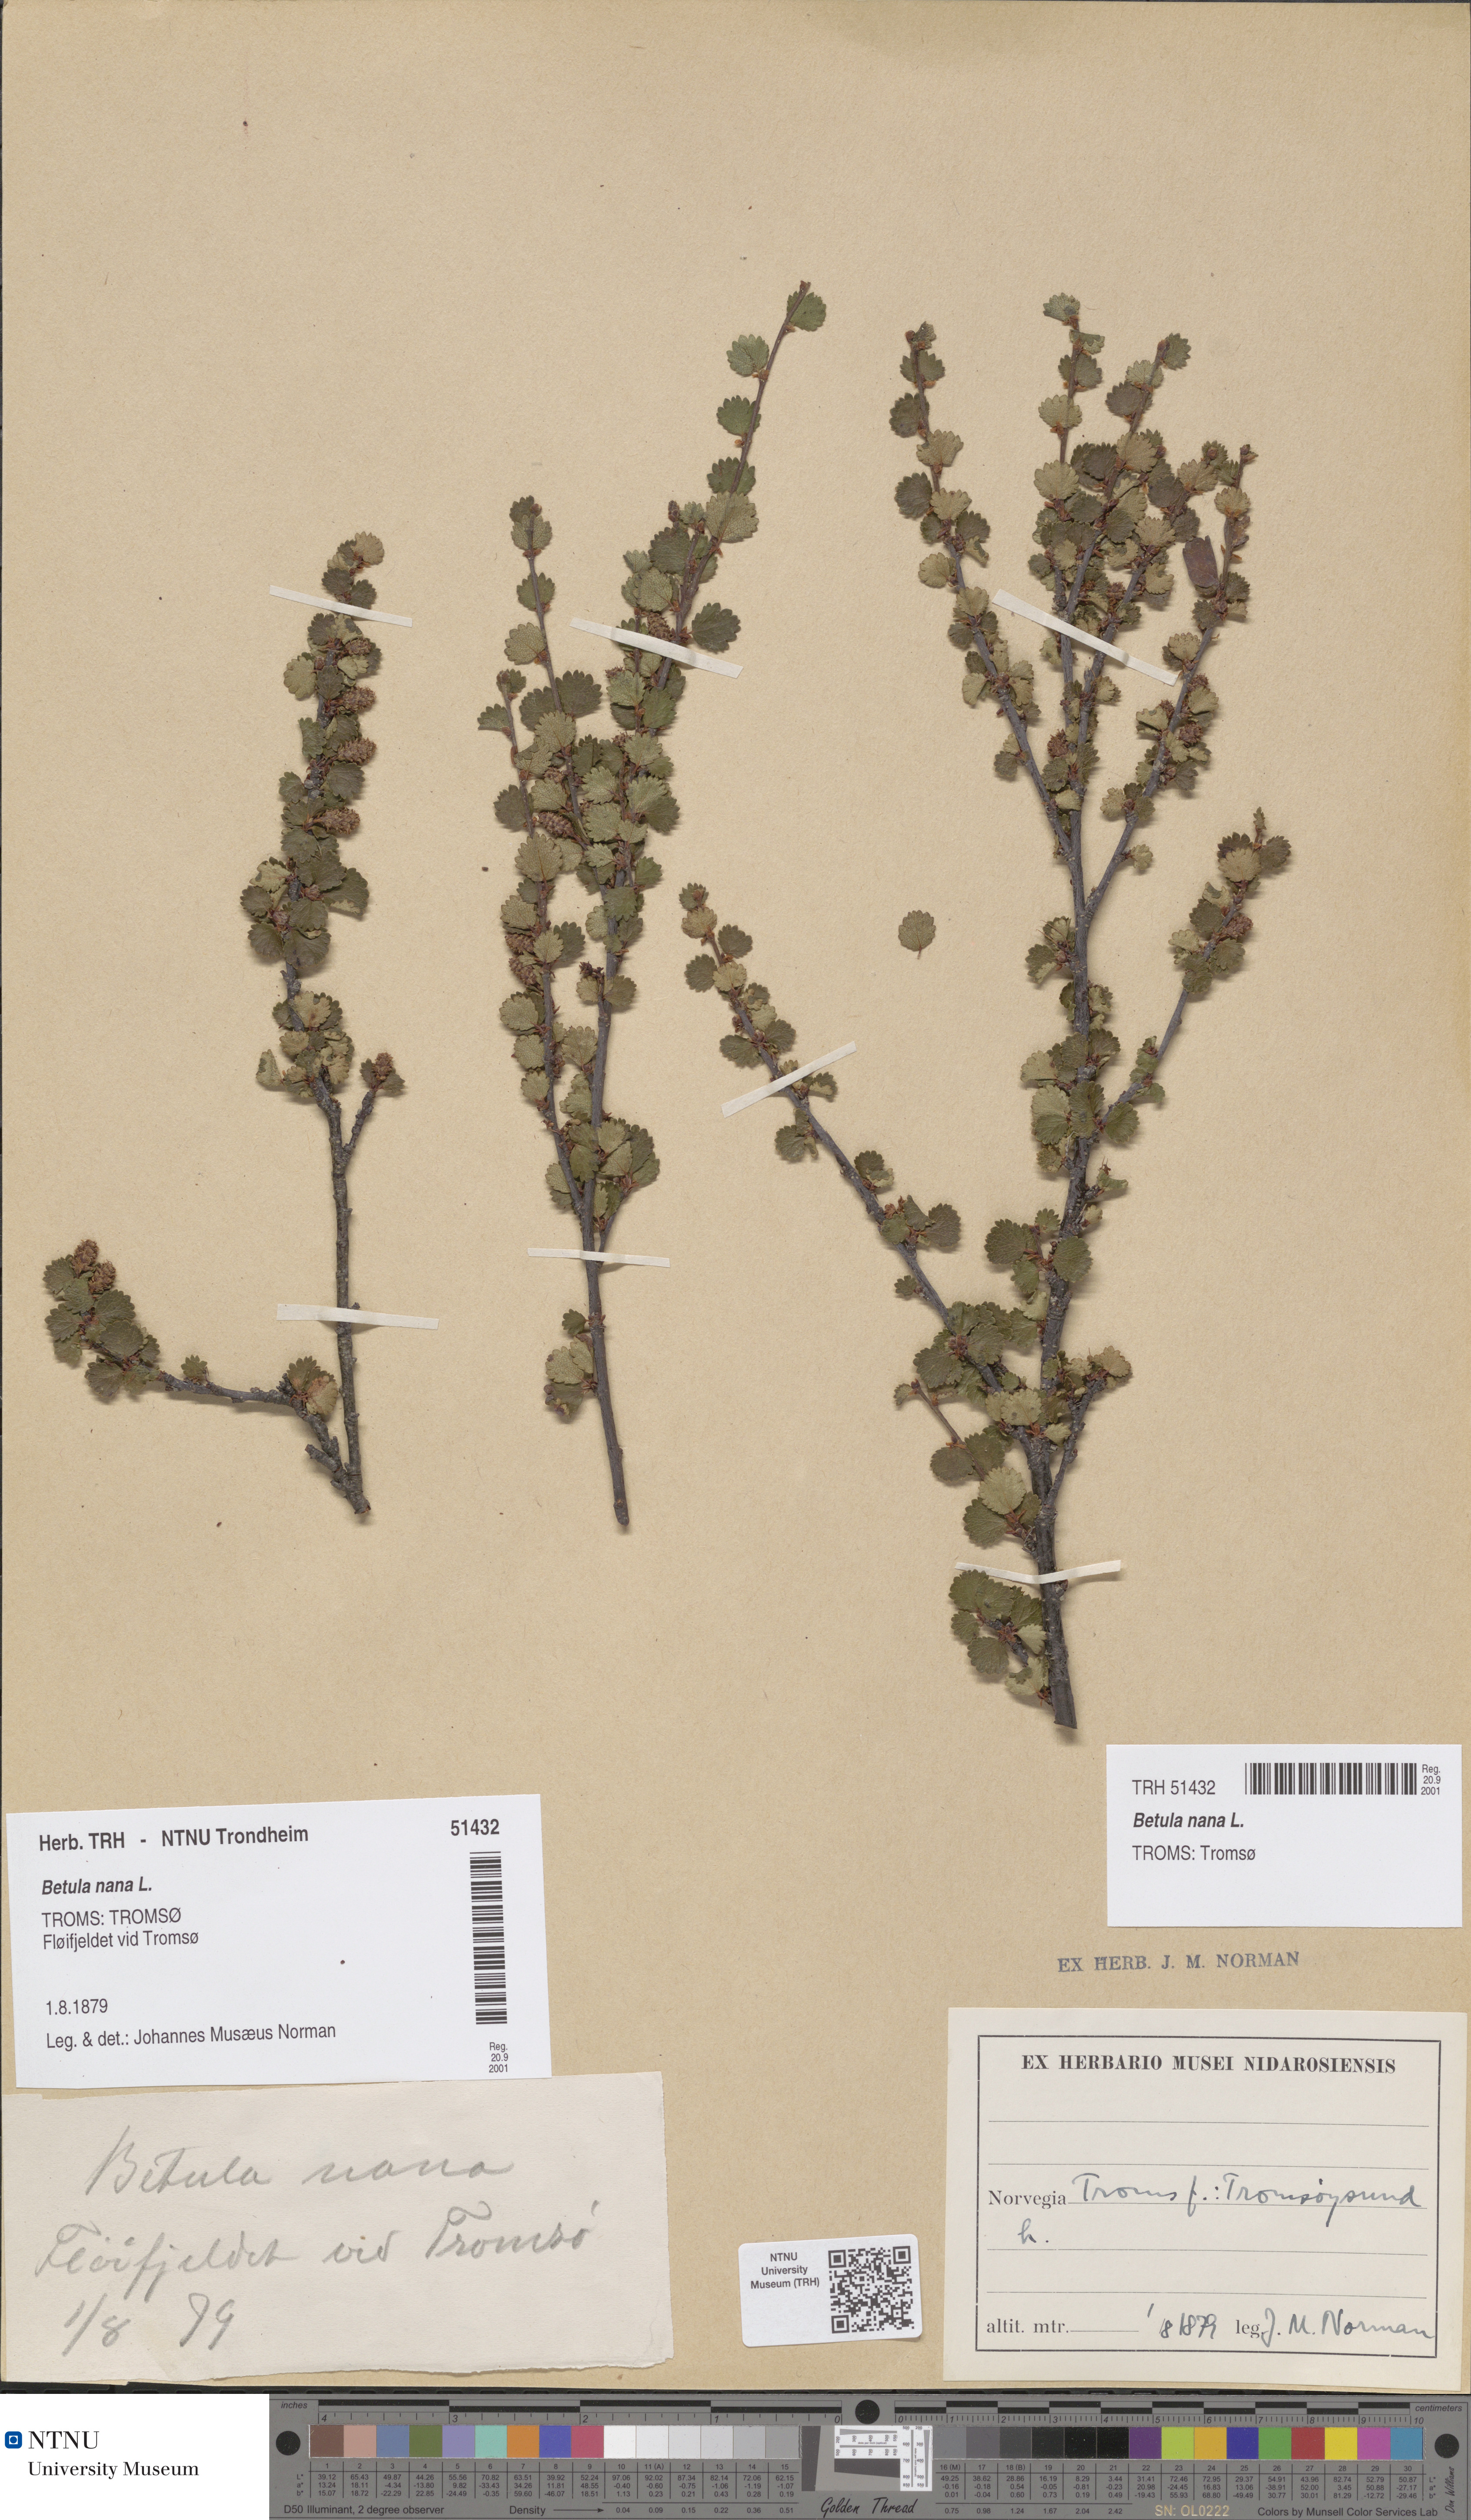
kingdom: Plantae
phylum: Tracheophyta
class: Magnoliopsida
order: Fagales
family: Betulaceae
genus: Betula
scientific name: Betula nana
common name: Arctic dwarf birch
